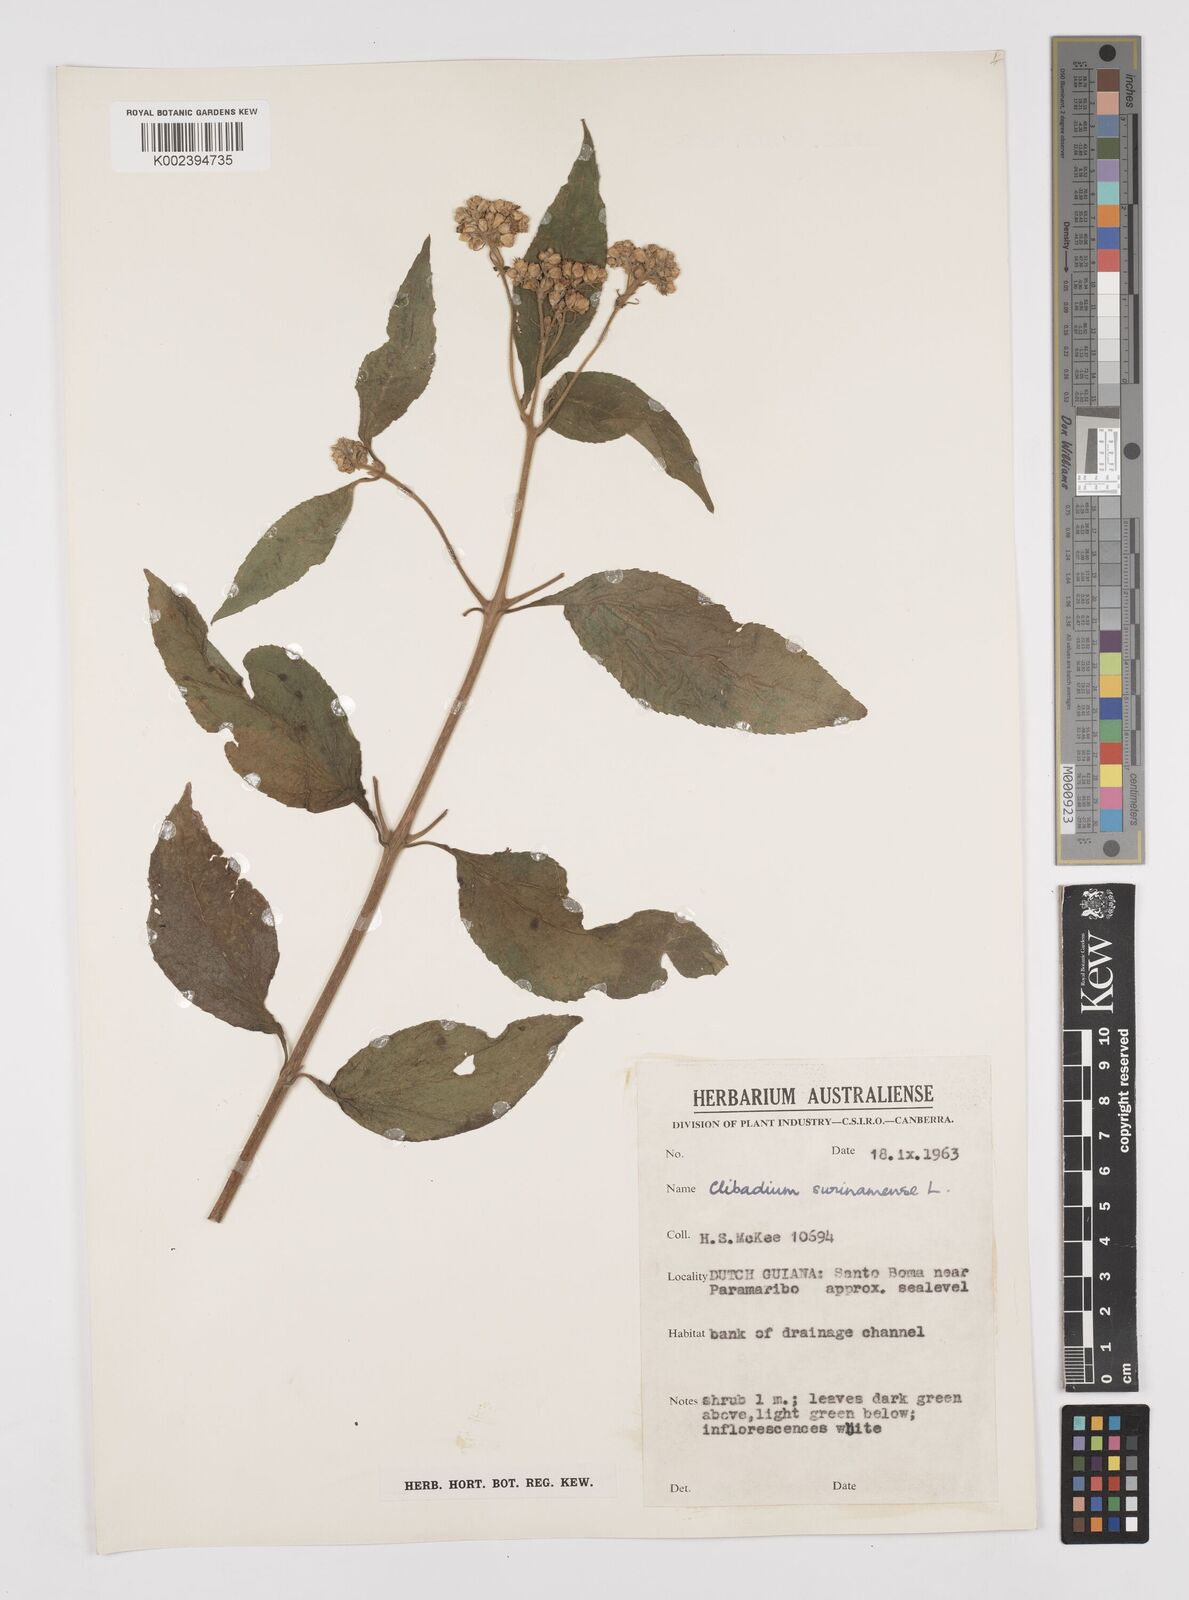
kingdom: Plantae
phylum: Tracheophyta
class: Magnoliopsida
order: Asterales
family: Asteraceae
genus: Clibadium
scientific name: Clibadium surinamense
